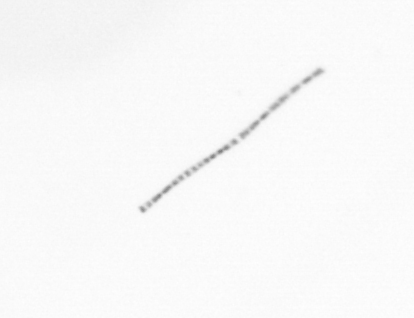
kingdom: Chromista
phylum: Ochrophyta
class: Bacillariophyceae
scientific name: Bacillariophyceae
